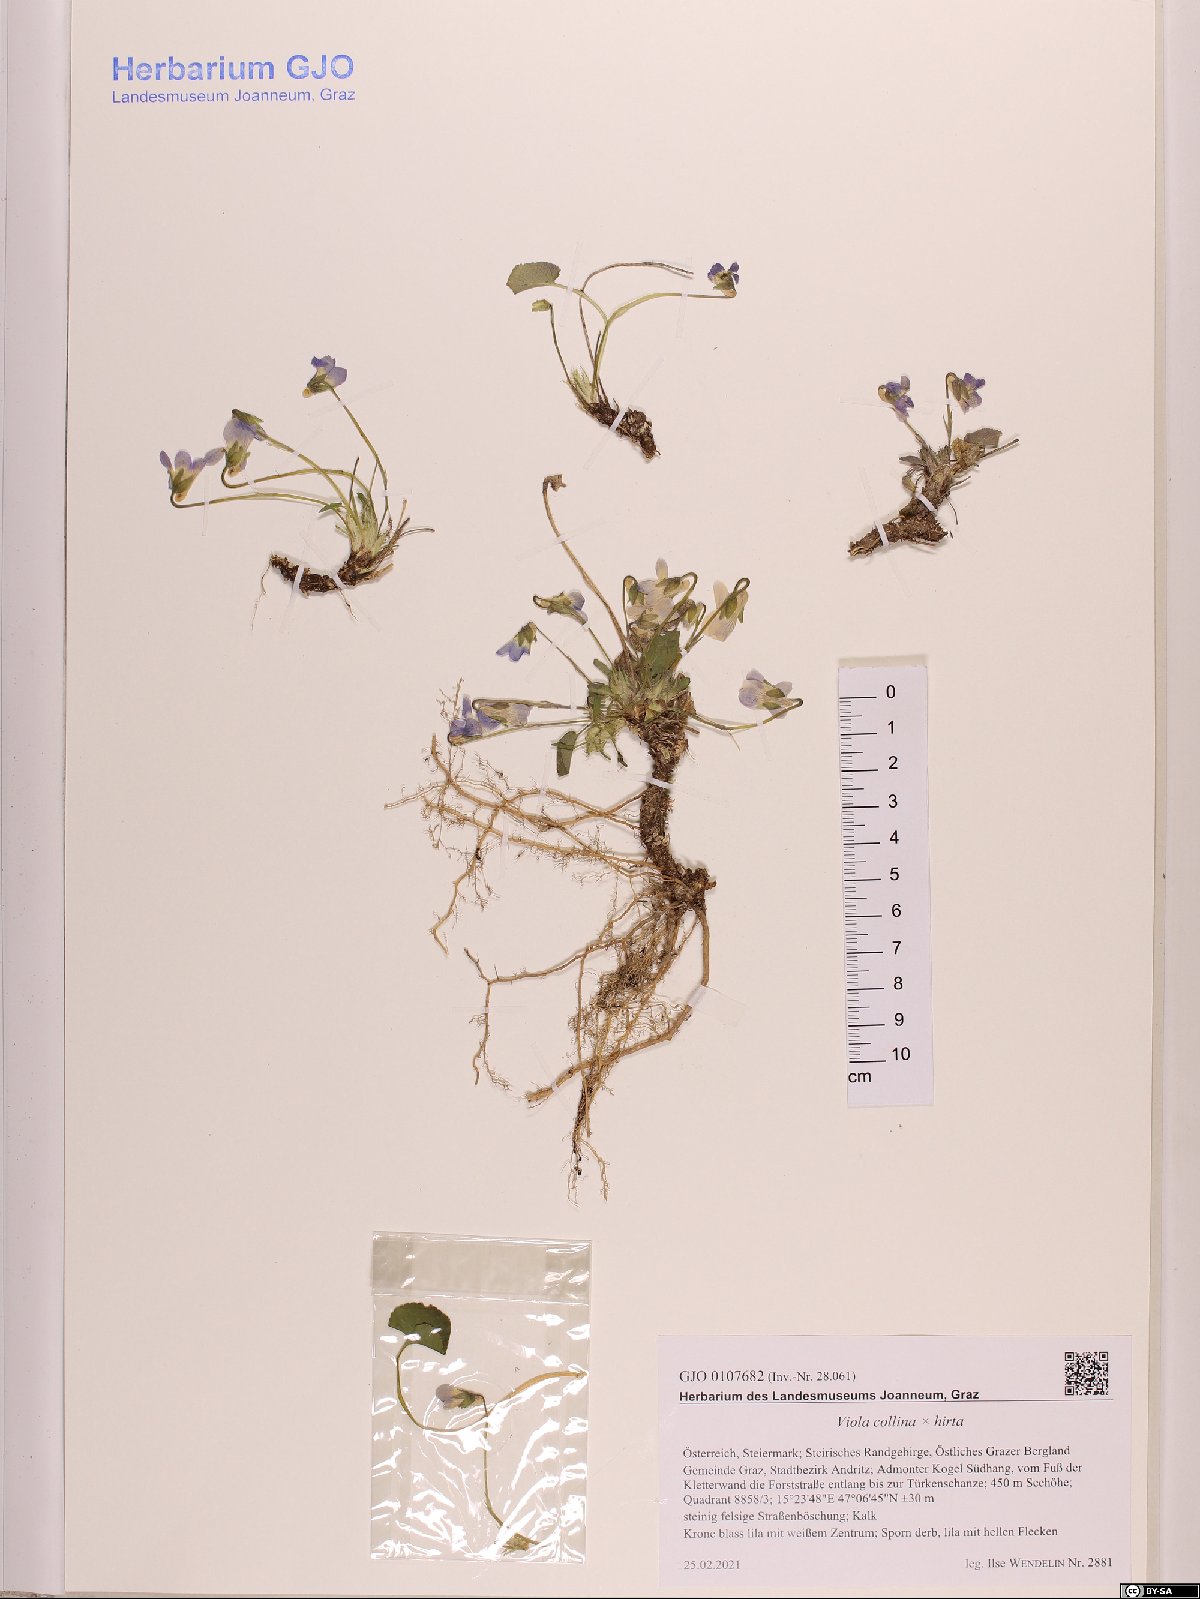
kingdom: Plantae
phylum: Tracheophyta
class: Magnoliopsida
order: Malpighiales
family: Violaceae
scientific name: Violaceae
